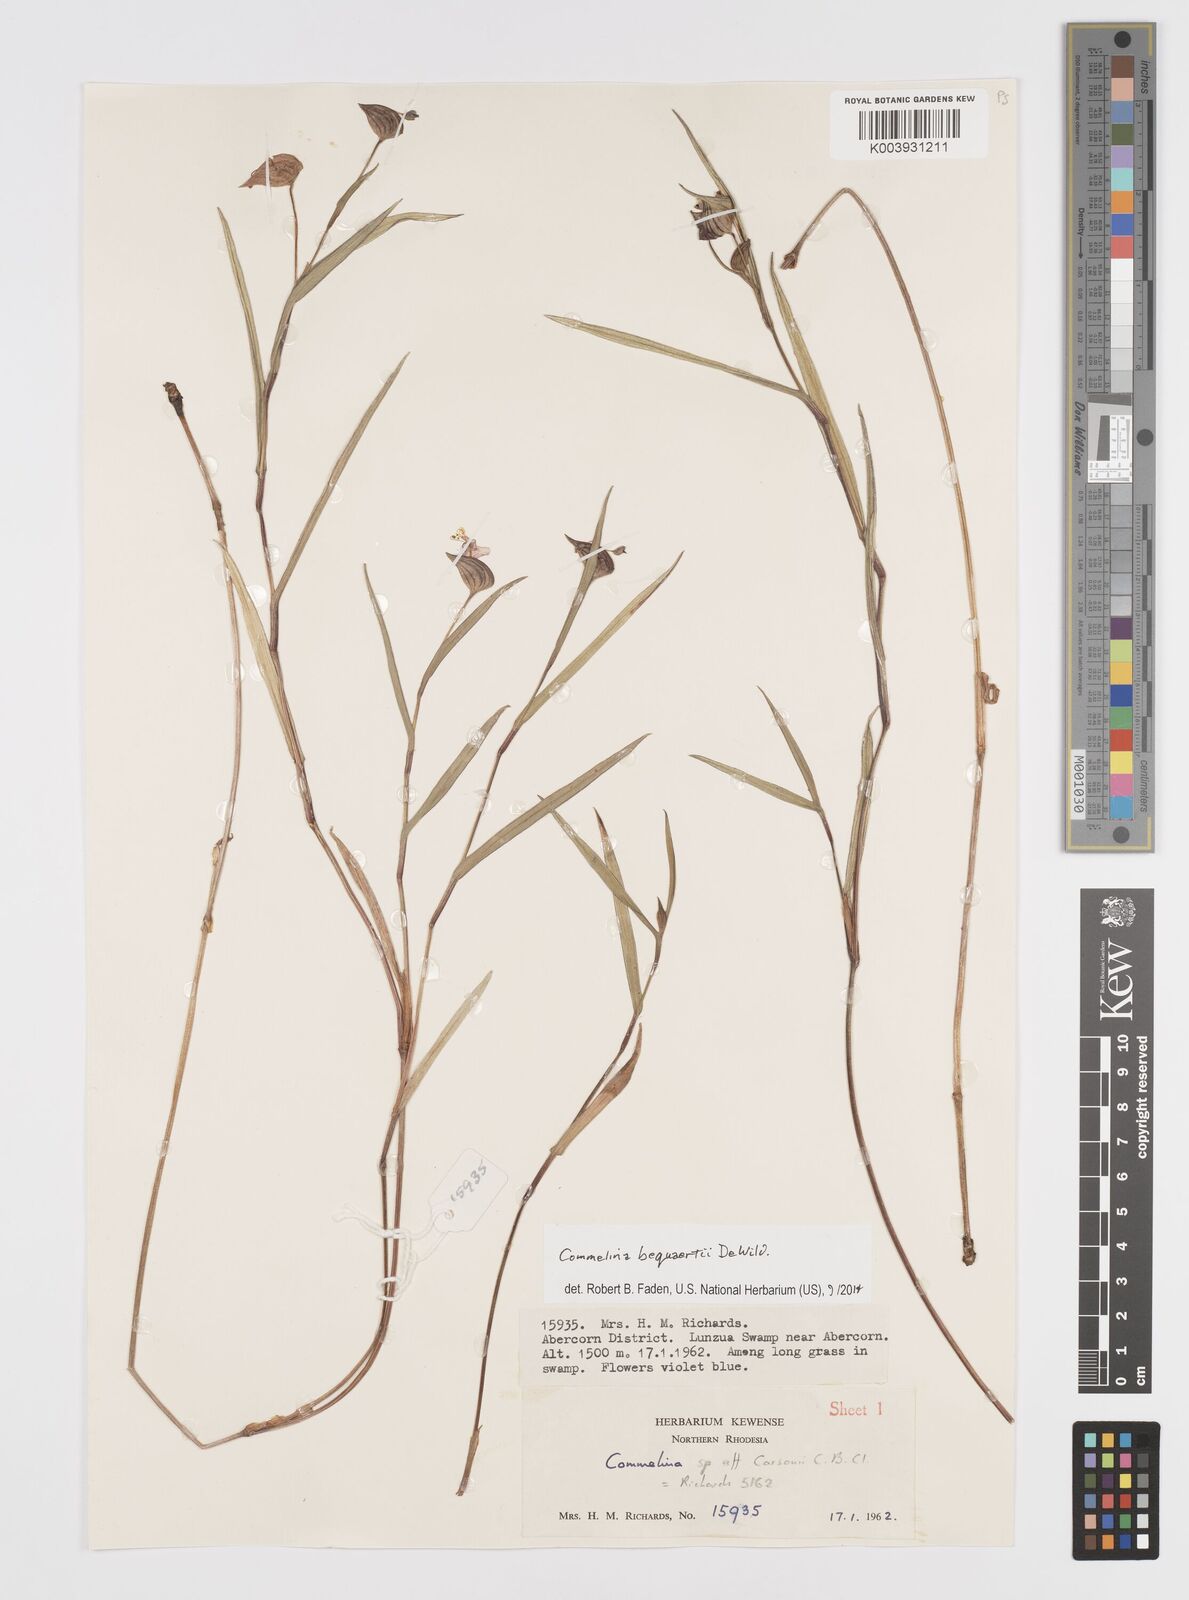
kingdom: Plantae
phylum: Tracheophyta
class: Liliopsida
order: Commelinales
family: Commelinaceae
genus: Commelina
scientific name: Commelina bequaertii
